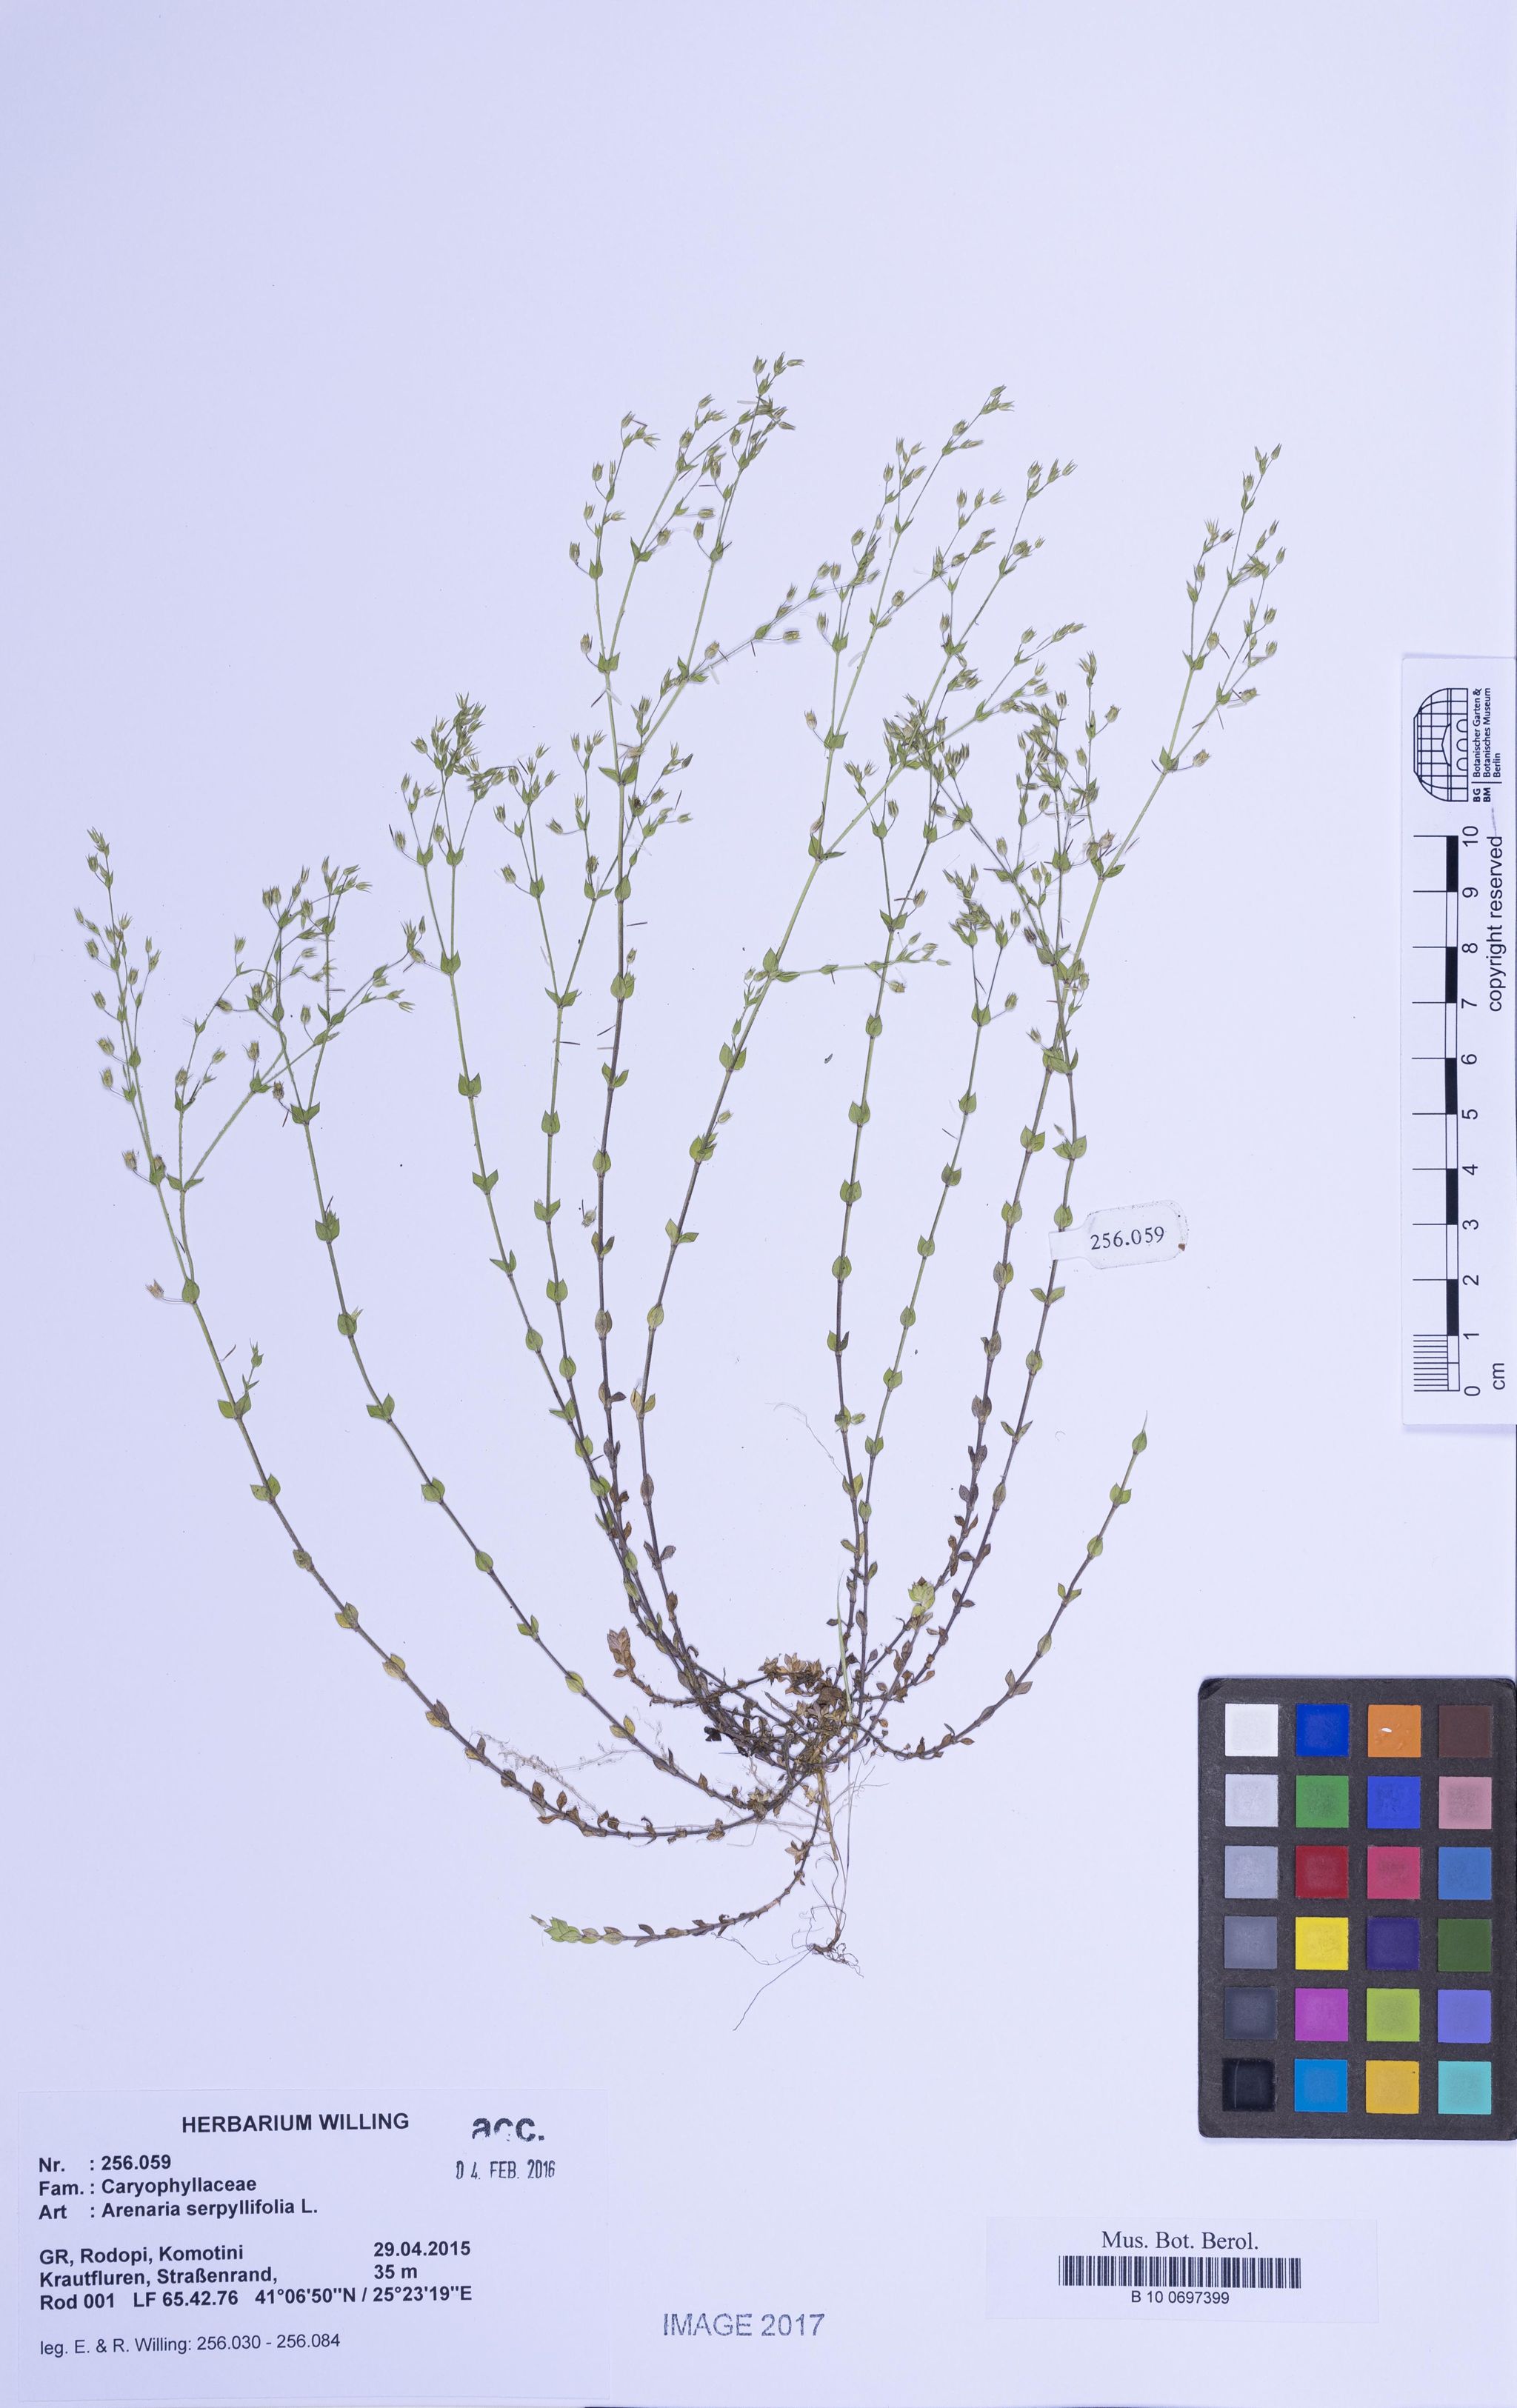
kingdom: Plantae
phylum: Tracheophyta
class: Magnoliopsida
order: Caryophyllales
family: Caryophyllaceae
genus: Arenaria
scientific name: Arenaria serpyllifolia
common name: Thyme-leaved sandwort
